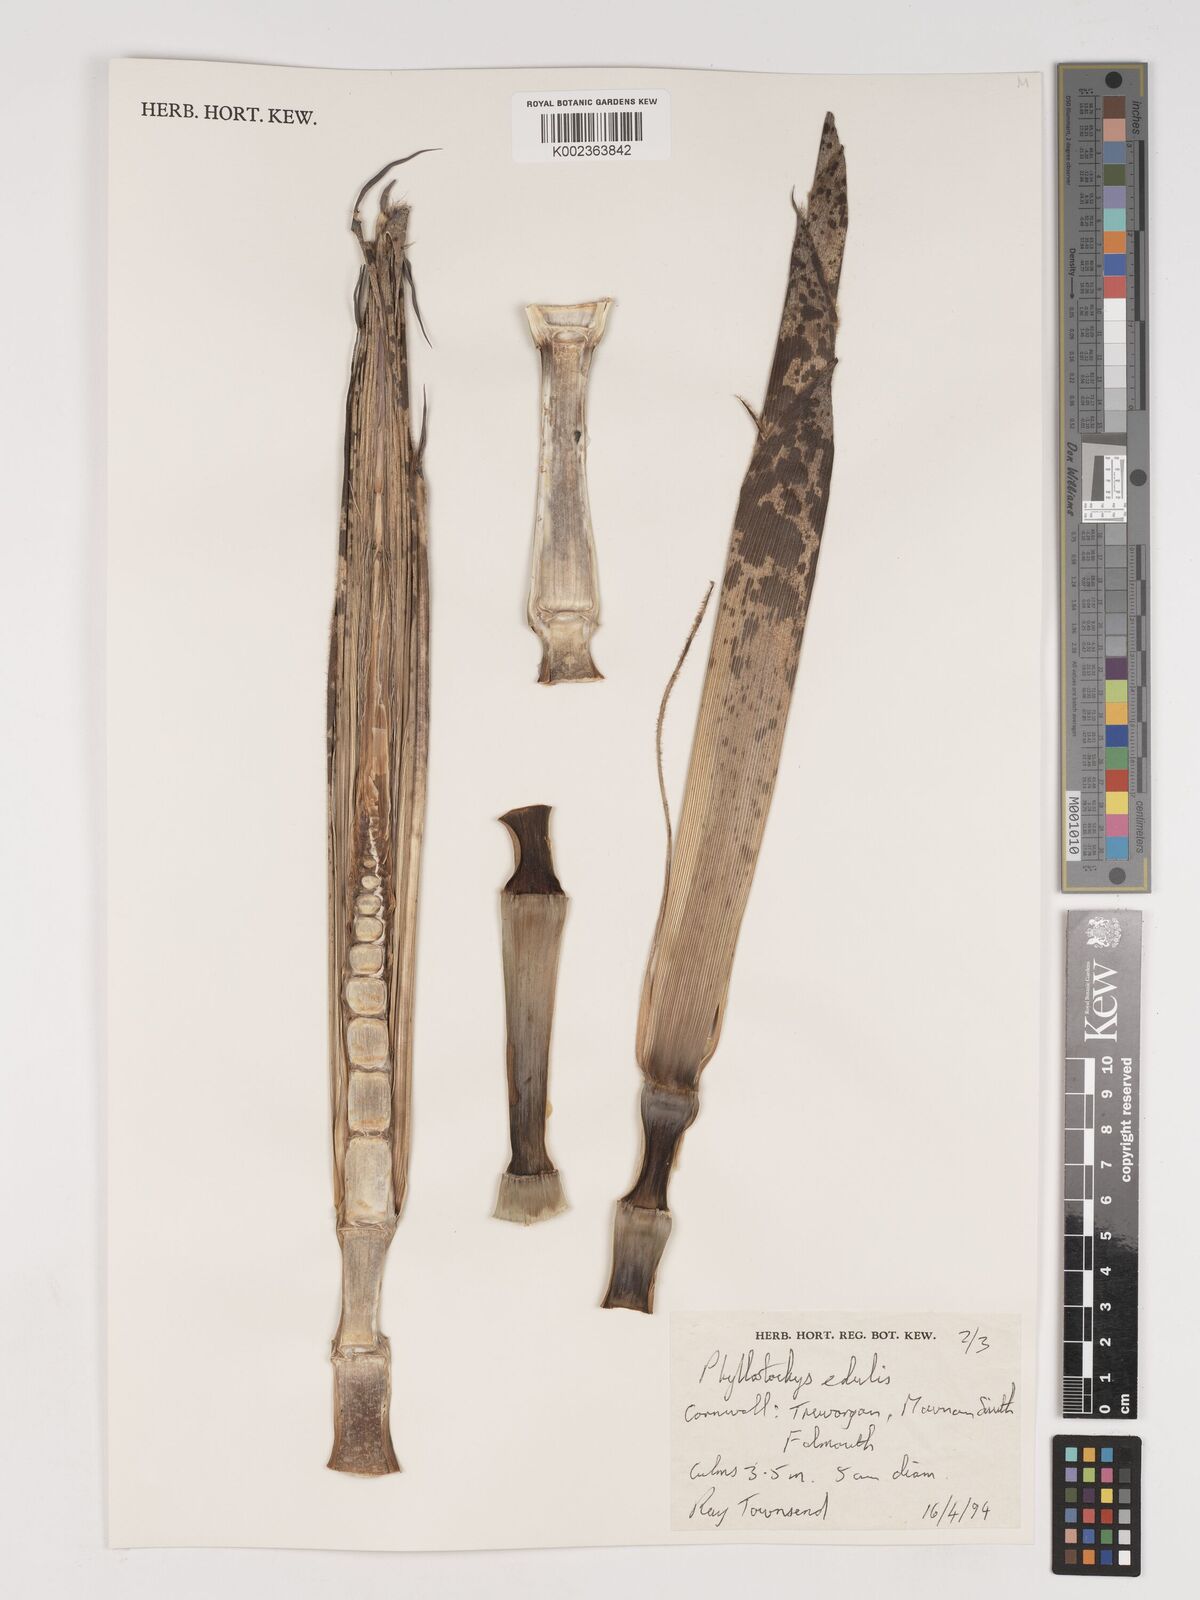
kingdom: Plantae
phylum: Tracheophyta
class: Liliopsida
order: Poales
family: Poaceae
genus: Phyllostachys
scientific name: Phyllostachys edulis
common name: Tortoise shell bamboo
